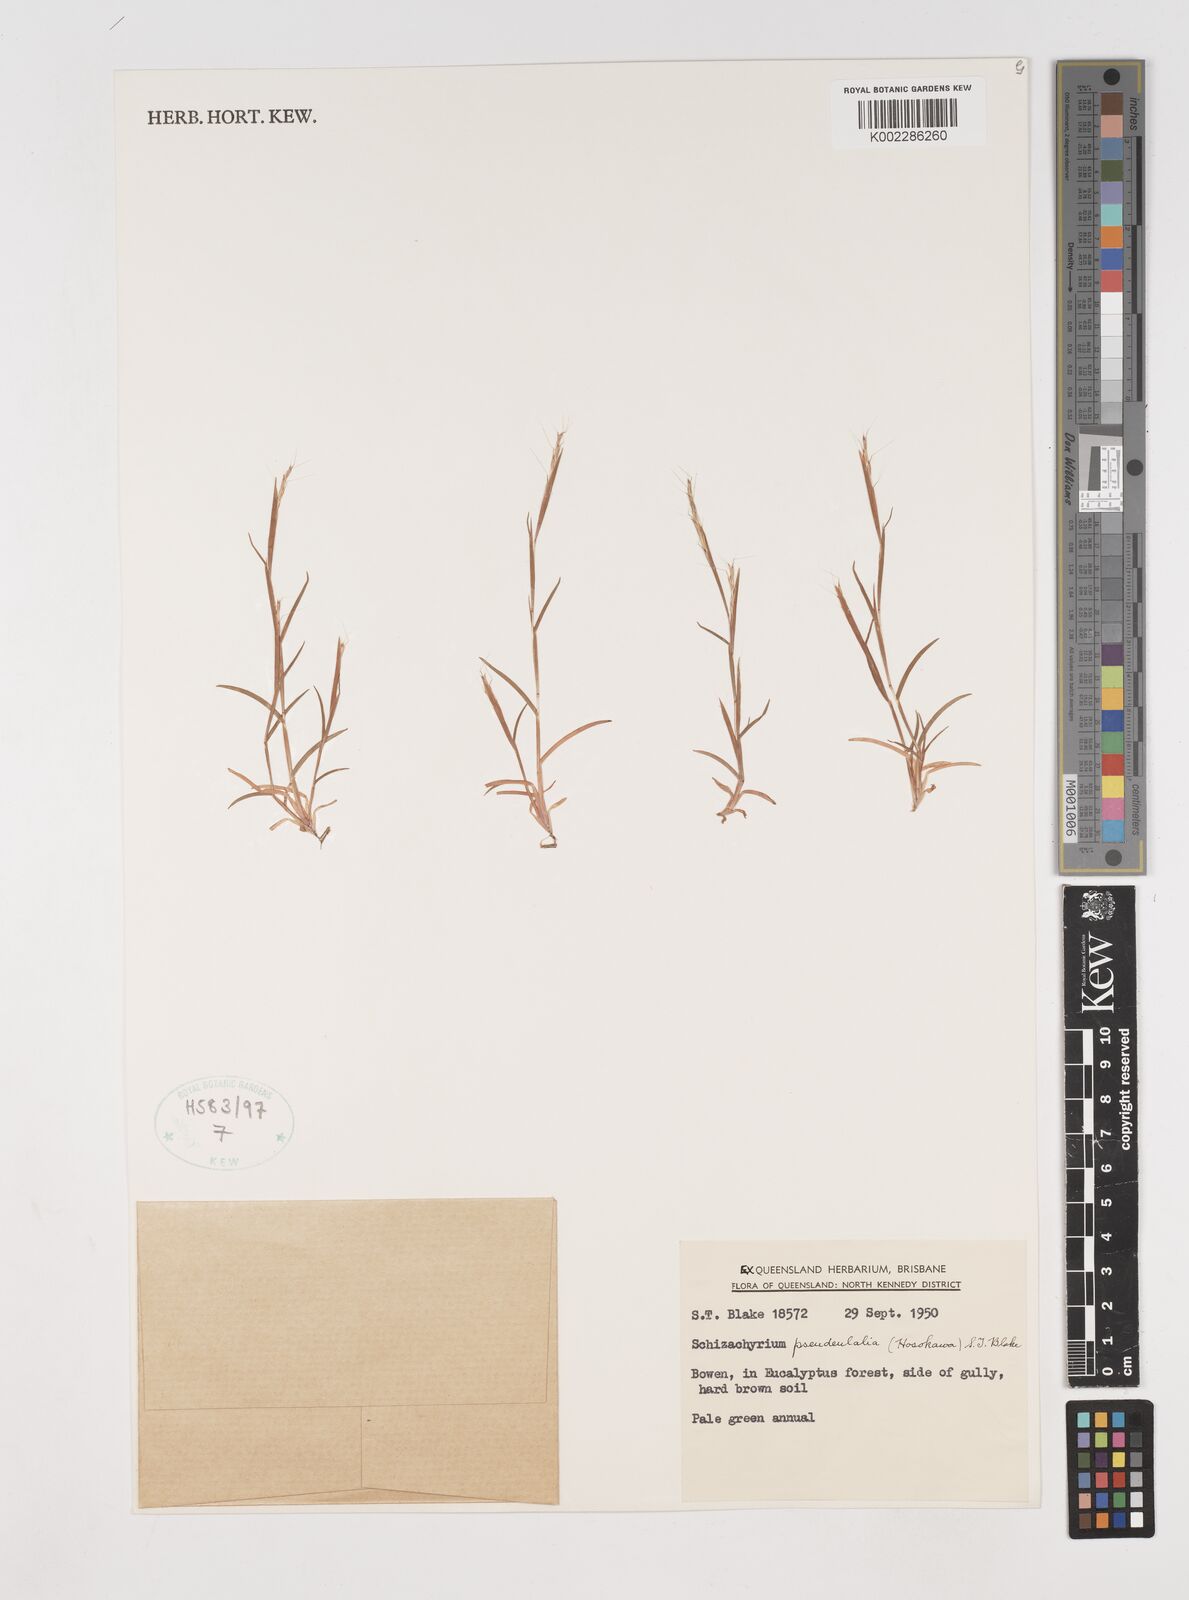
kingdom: Plantae
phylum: Tracheophyta
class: Liliopsida
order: Poales
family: Poaceae
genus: Schizachyrium
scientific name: Schizachyrium pseudeulalia
